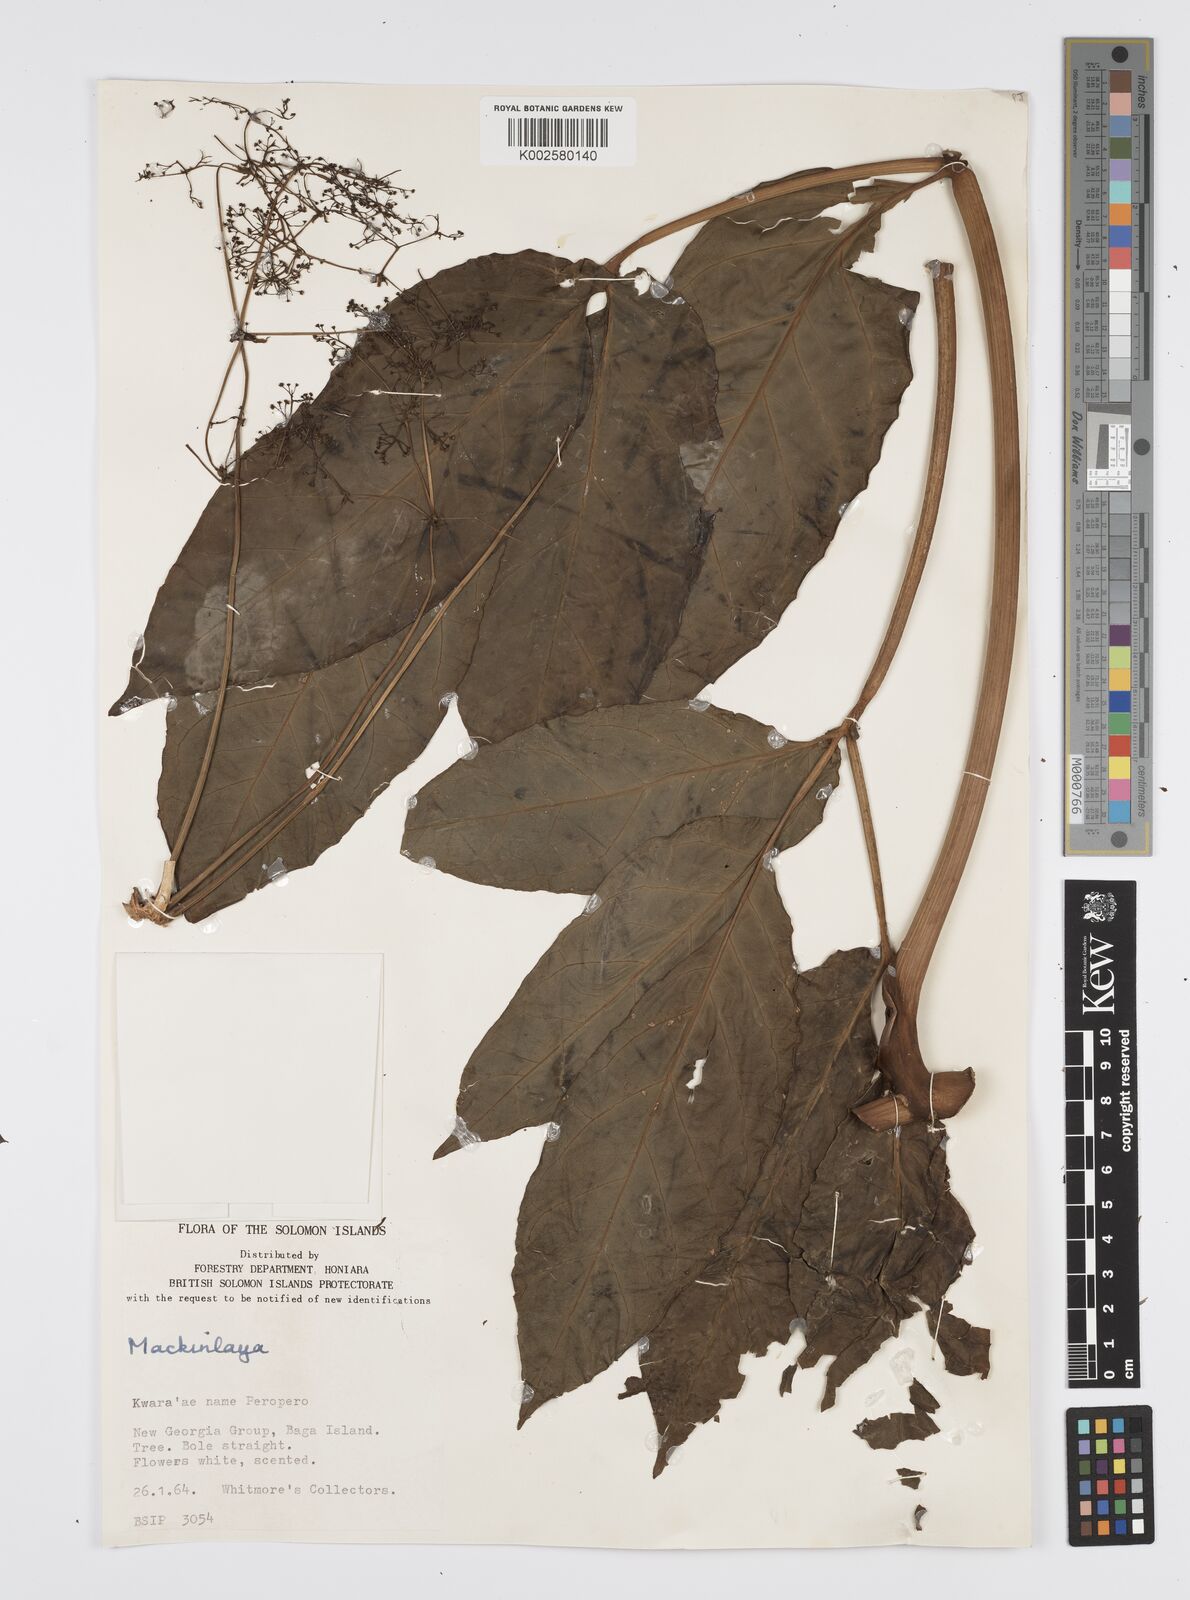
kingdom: Plantae
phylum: Tracheophyta
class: Magnoliopsida
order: Apiales
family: Apiaceae
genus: Mackinlaya
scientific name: Mackinlaya celebica
